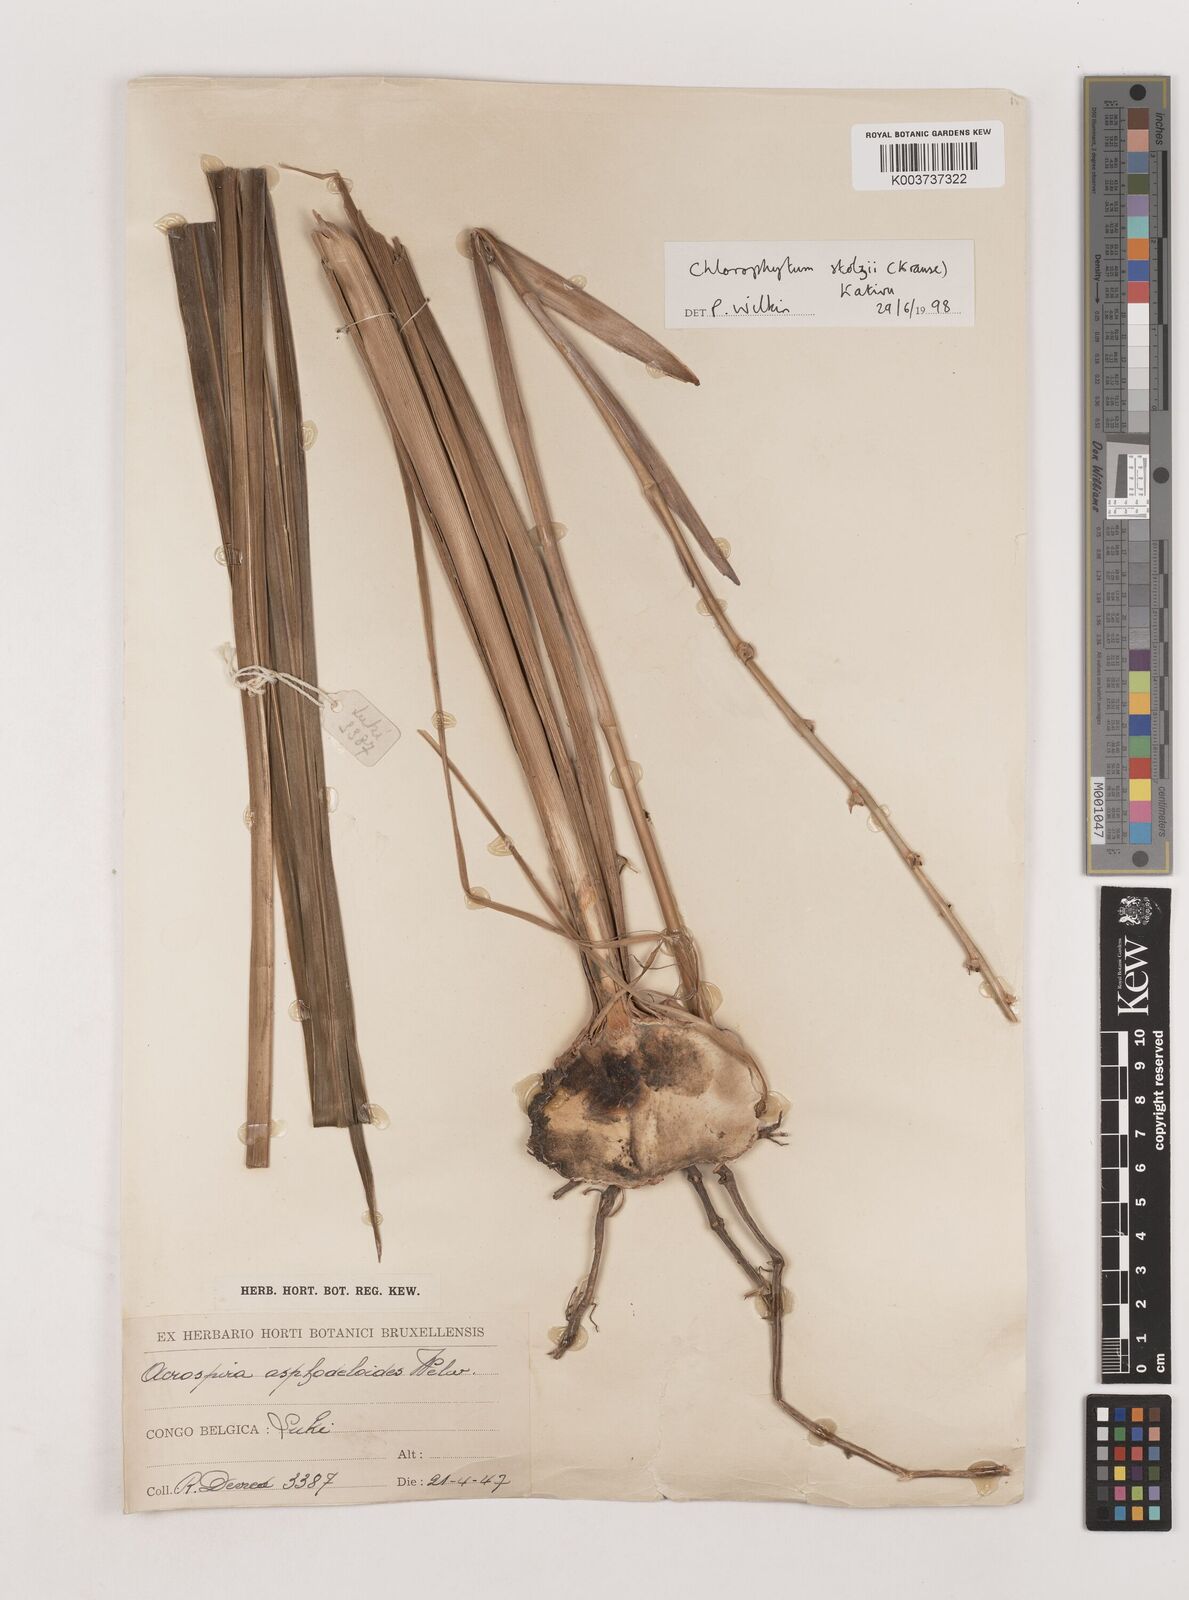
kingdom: Plantae
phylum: Tracheophyta
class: Liliopsida
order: Asparagales
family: Asparagaceae
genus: Chlorophytum
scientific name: Chlorophytum monophyllum
